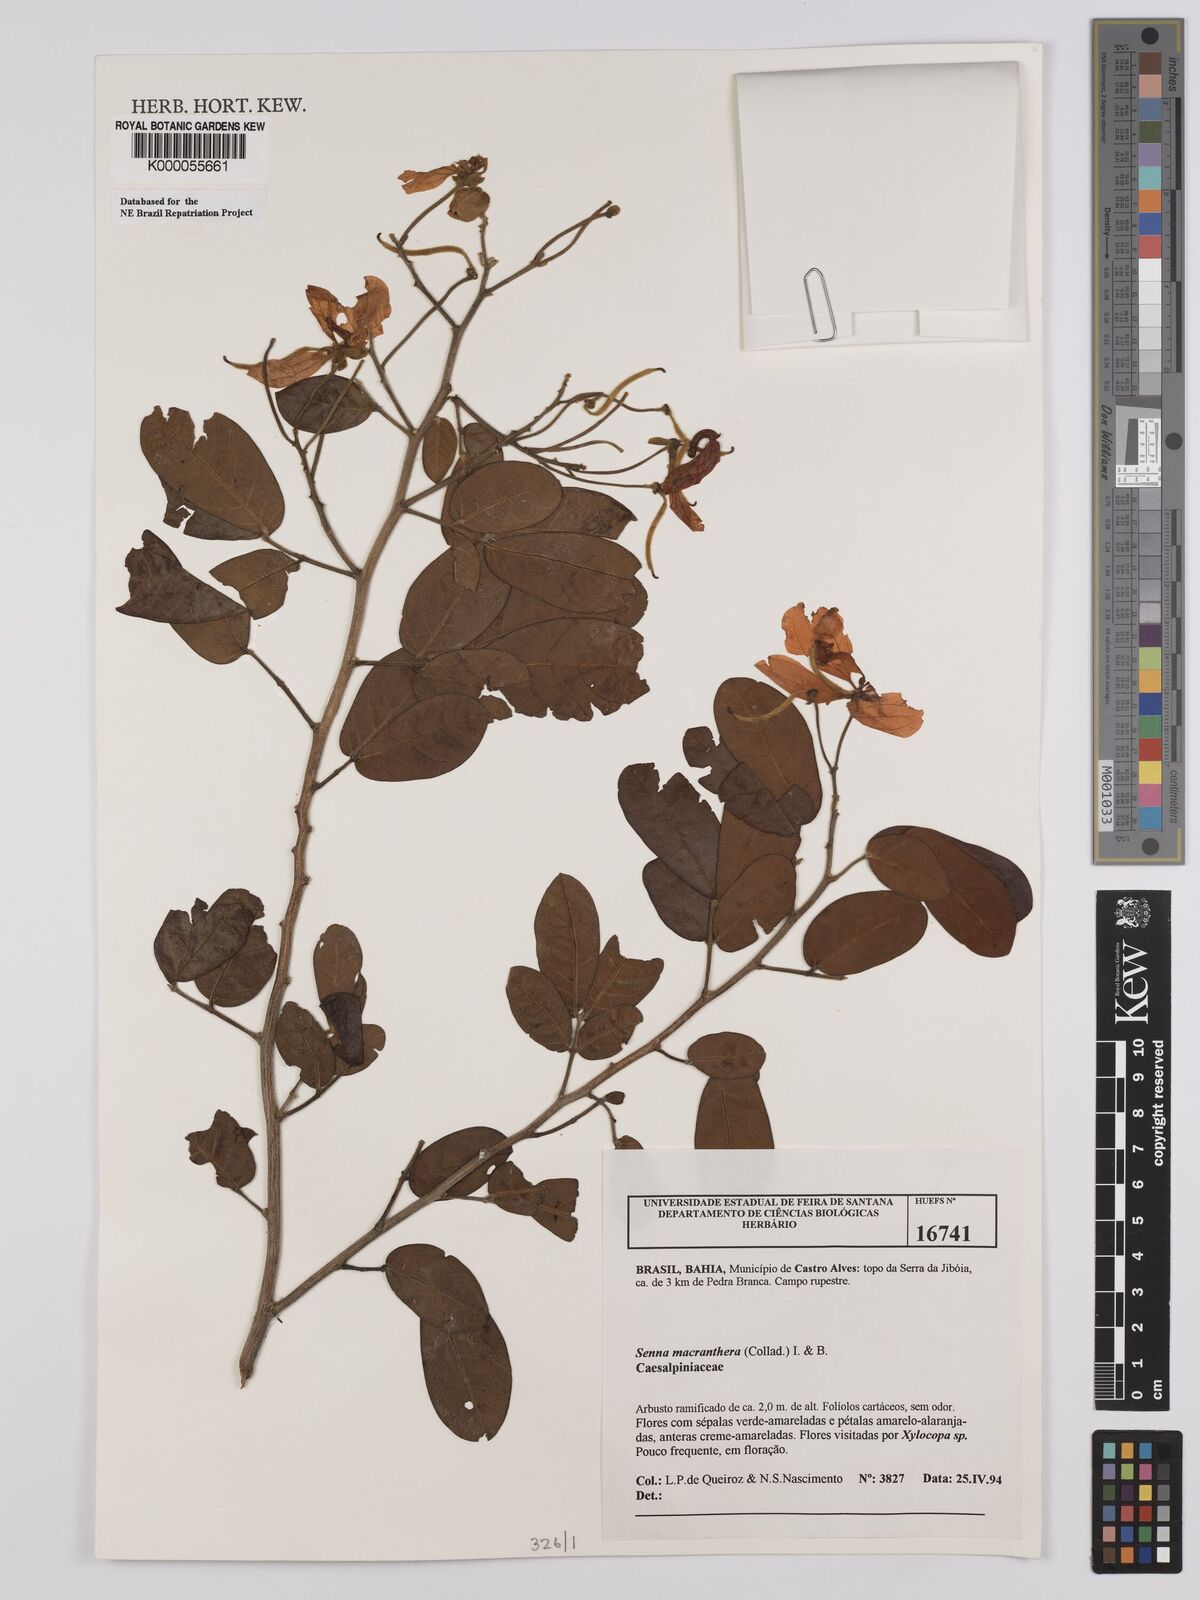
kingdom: Plantae
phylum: Tracheophyta
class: Magnoliopsida
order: Fabales
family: Fabaceae
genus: Senna
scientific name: Senna macranthera
